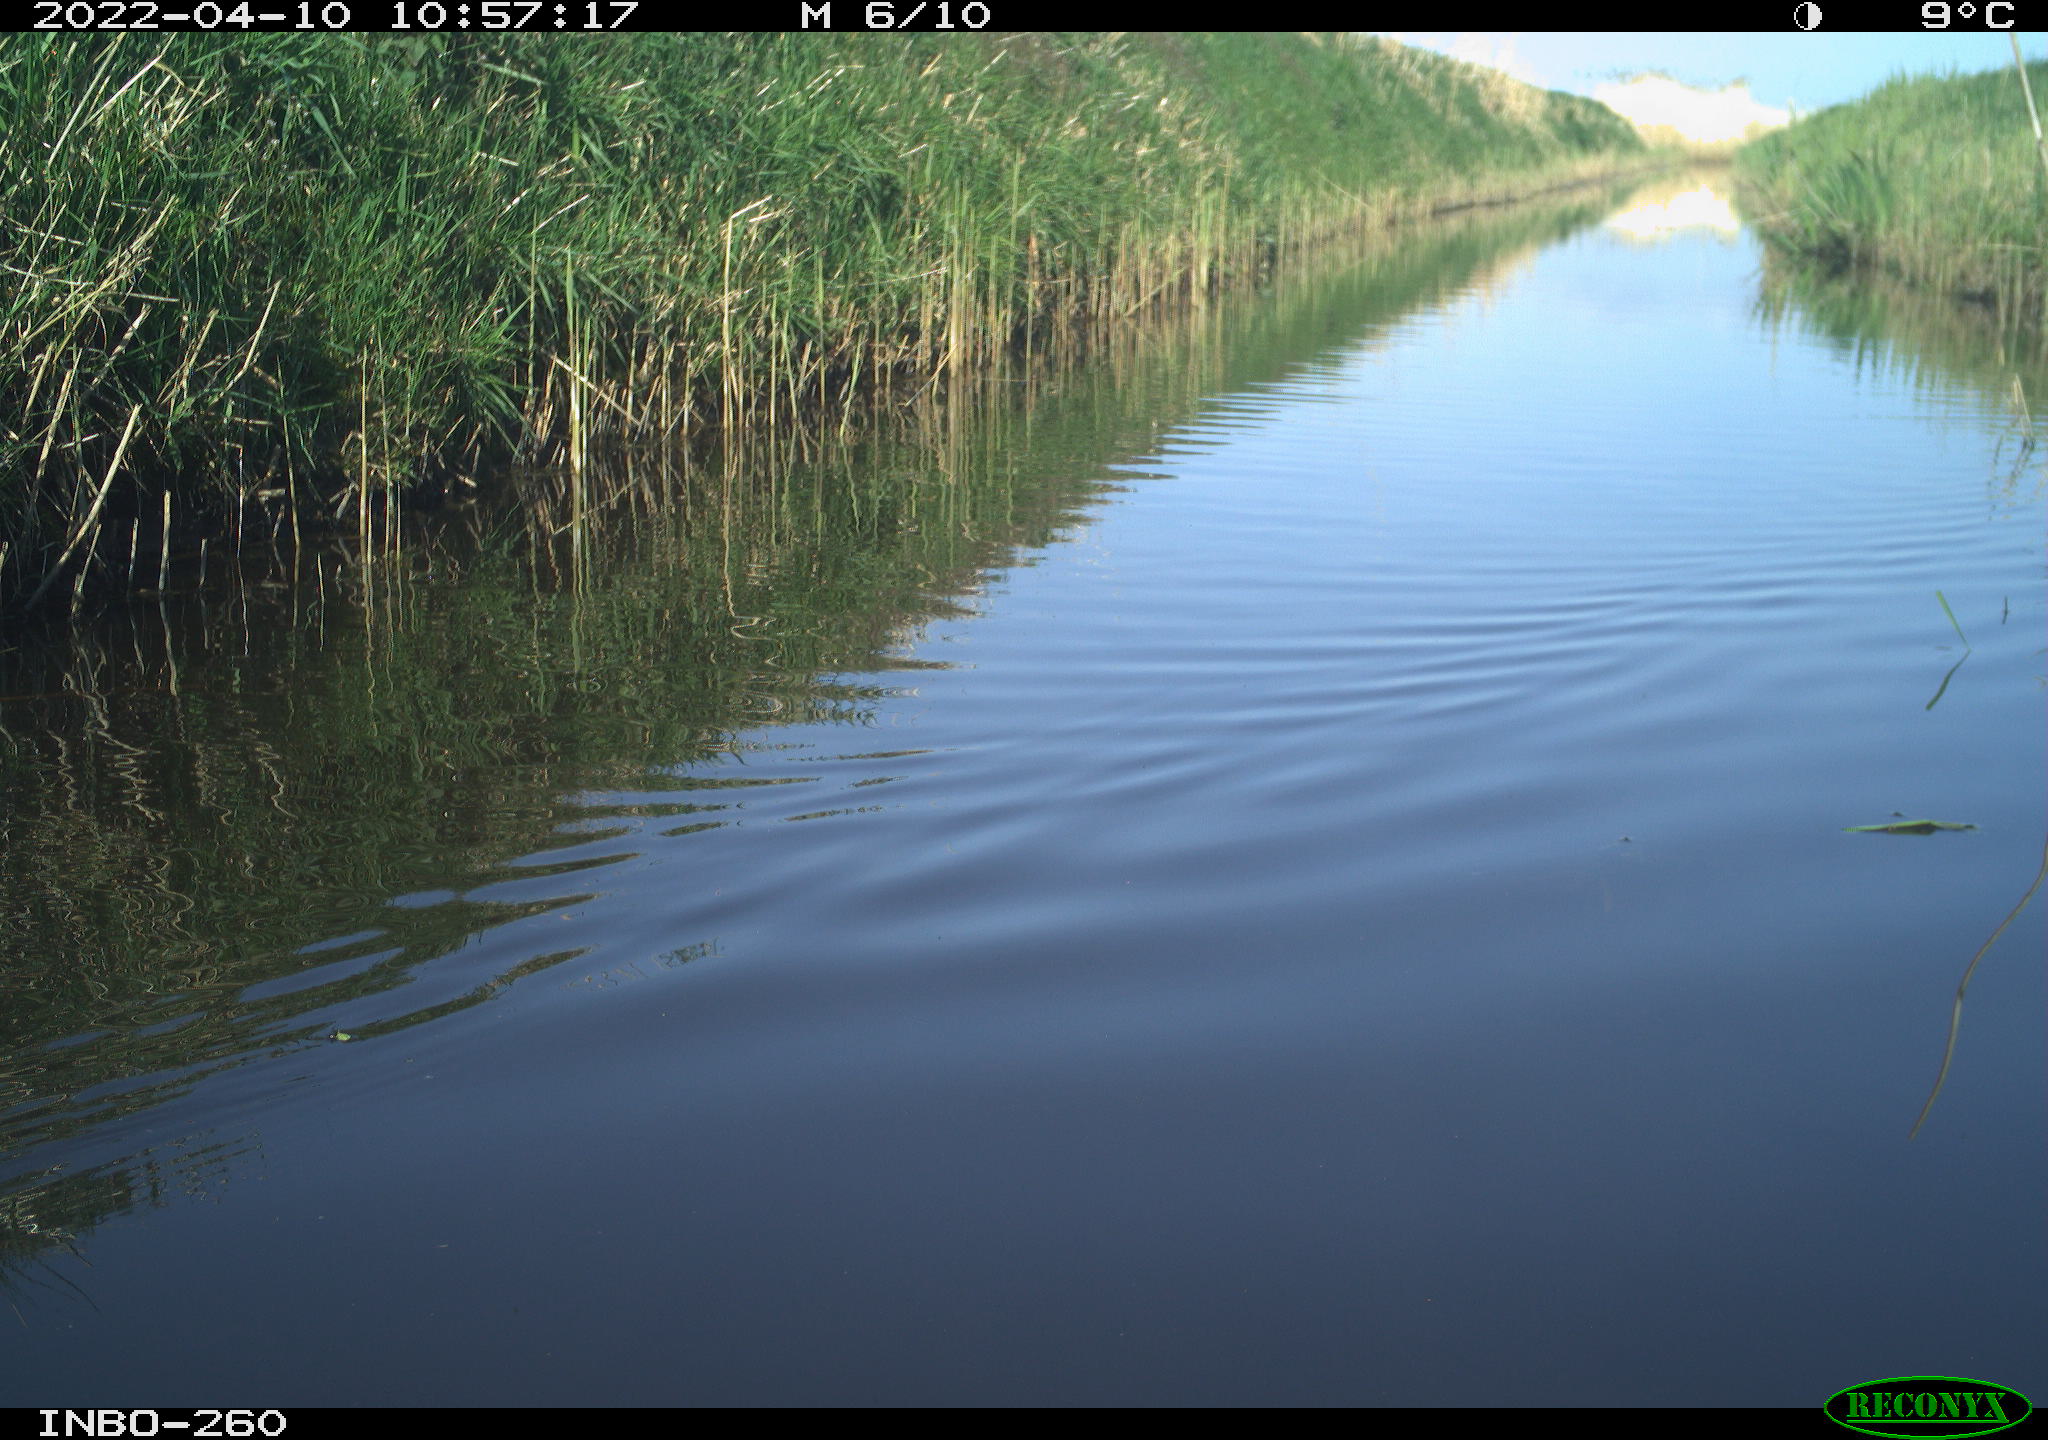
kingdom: Animalia
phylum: Chordata
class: Aves
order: Gruiformes
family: Rallidae
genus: Fulica
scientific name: Fulica atra
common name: Eurasian coot
